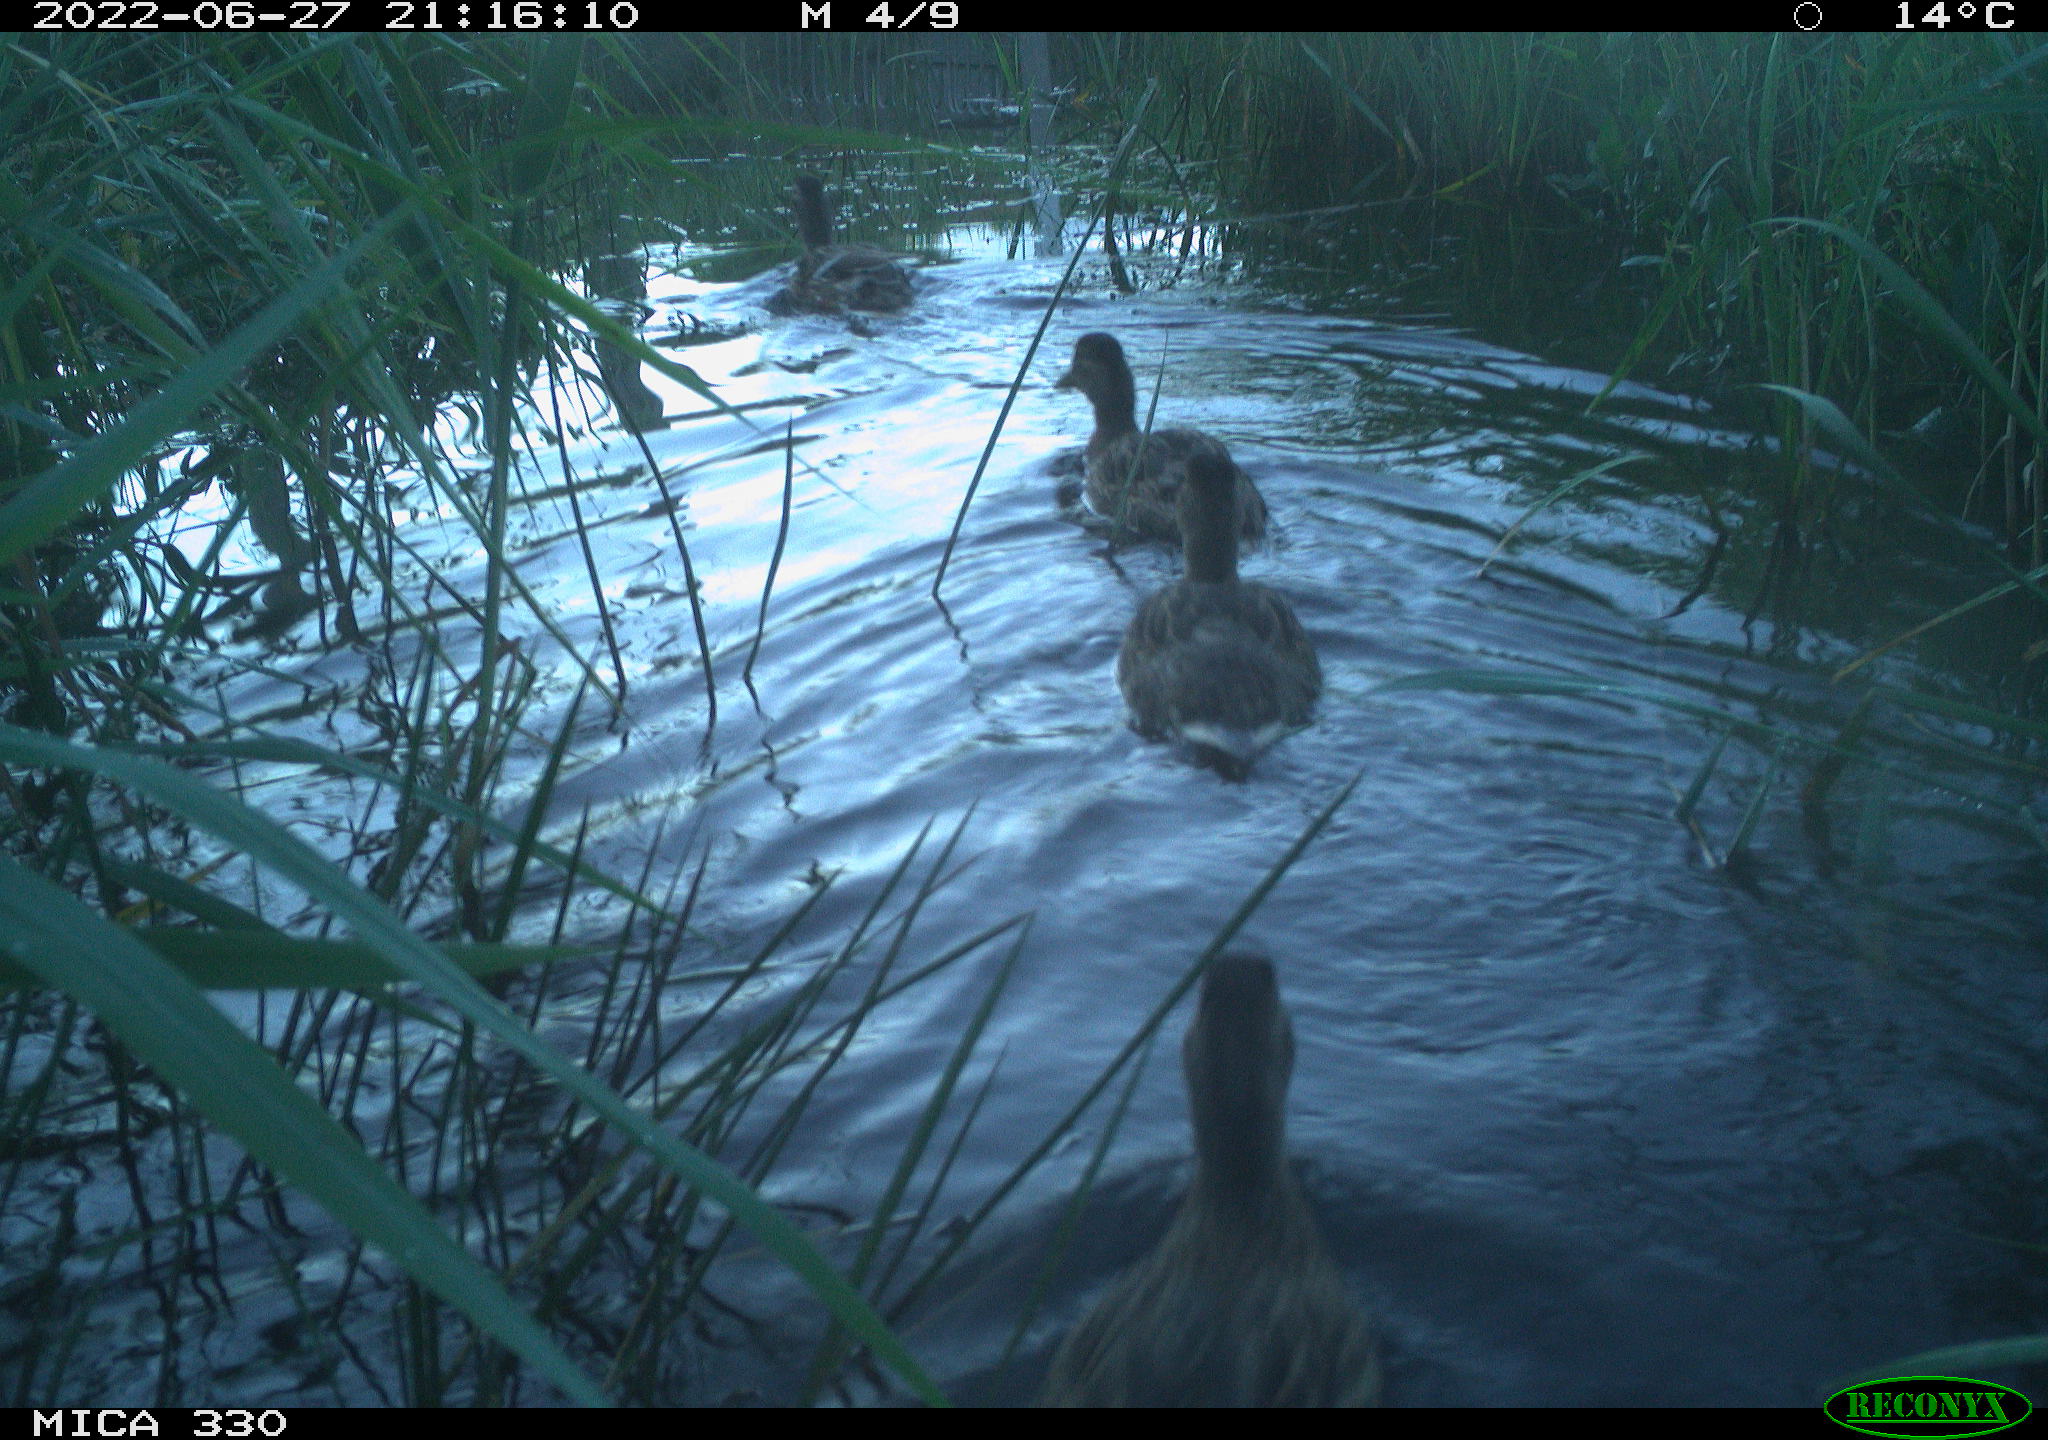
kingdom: Animalia
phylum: Chordata
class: Aves
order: Anseriformes
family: Anatidae
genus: Anas
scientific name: Anas platyrhynchos
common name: Mallard
